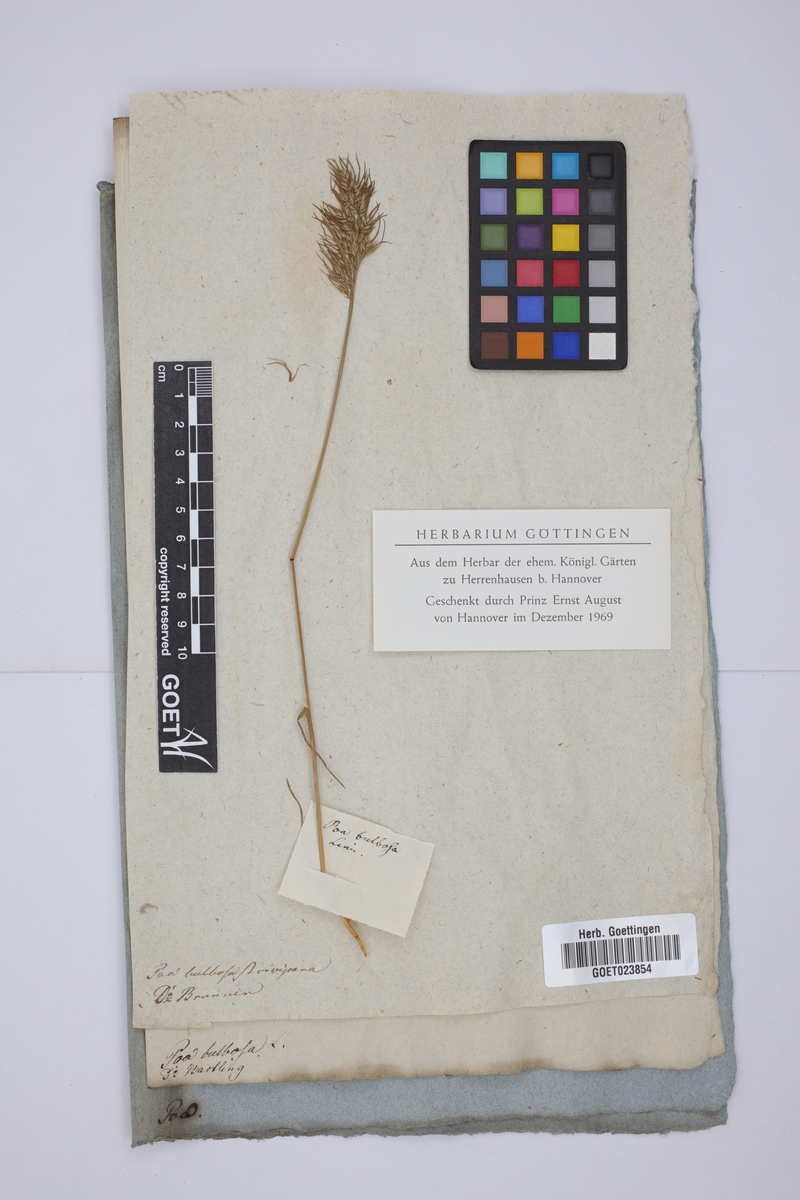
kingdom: Plantae
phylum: Tracheophyta
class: Liliopsida
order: Poales
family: Poaceae
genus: Poa
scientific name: Poa bulbosa
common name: Bulbous bluegrass
